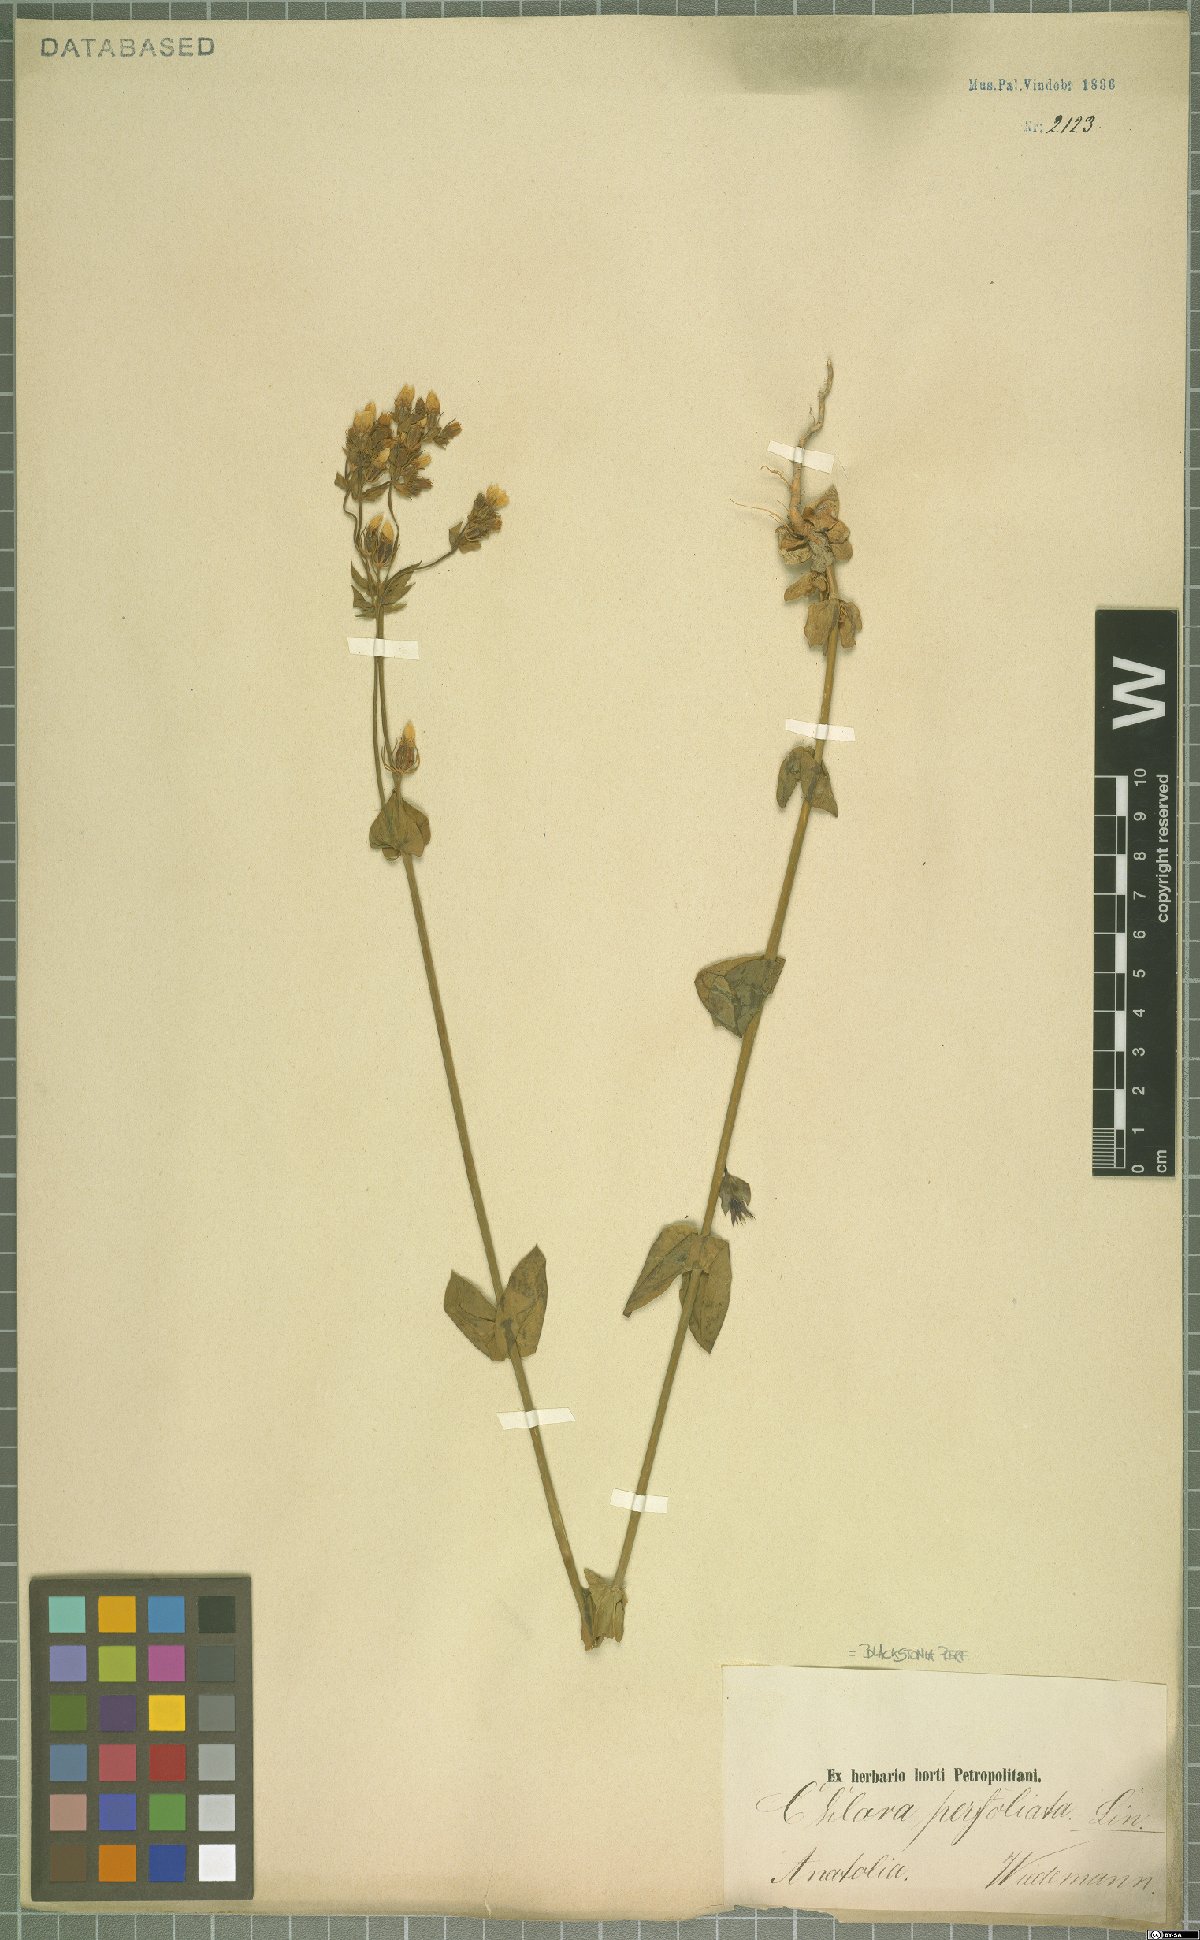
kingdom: Plantae
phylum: Tracheophyta
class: Magnoliopsida
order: Gentianales
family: Gentianaceae
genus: Blackstonia
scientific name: Blackstonia perfoliata
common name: Yellow-wort
